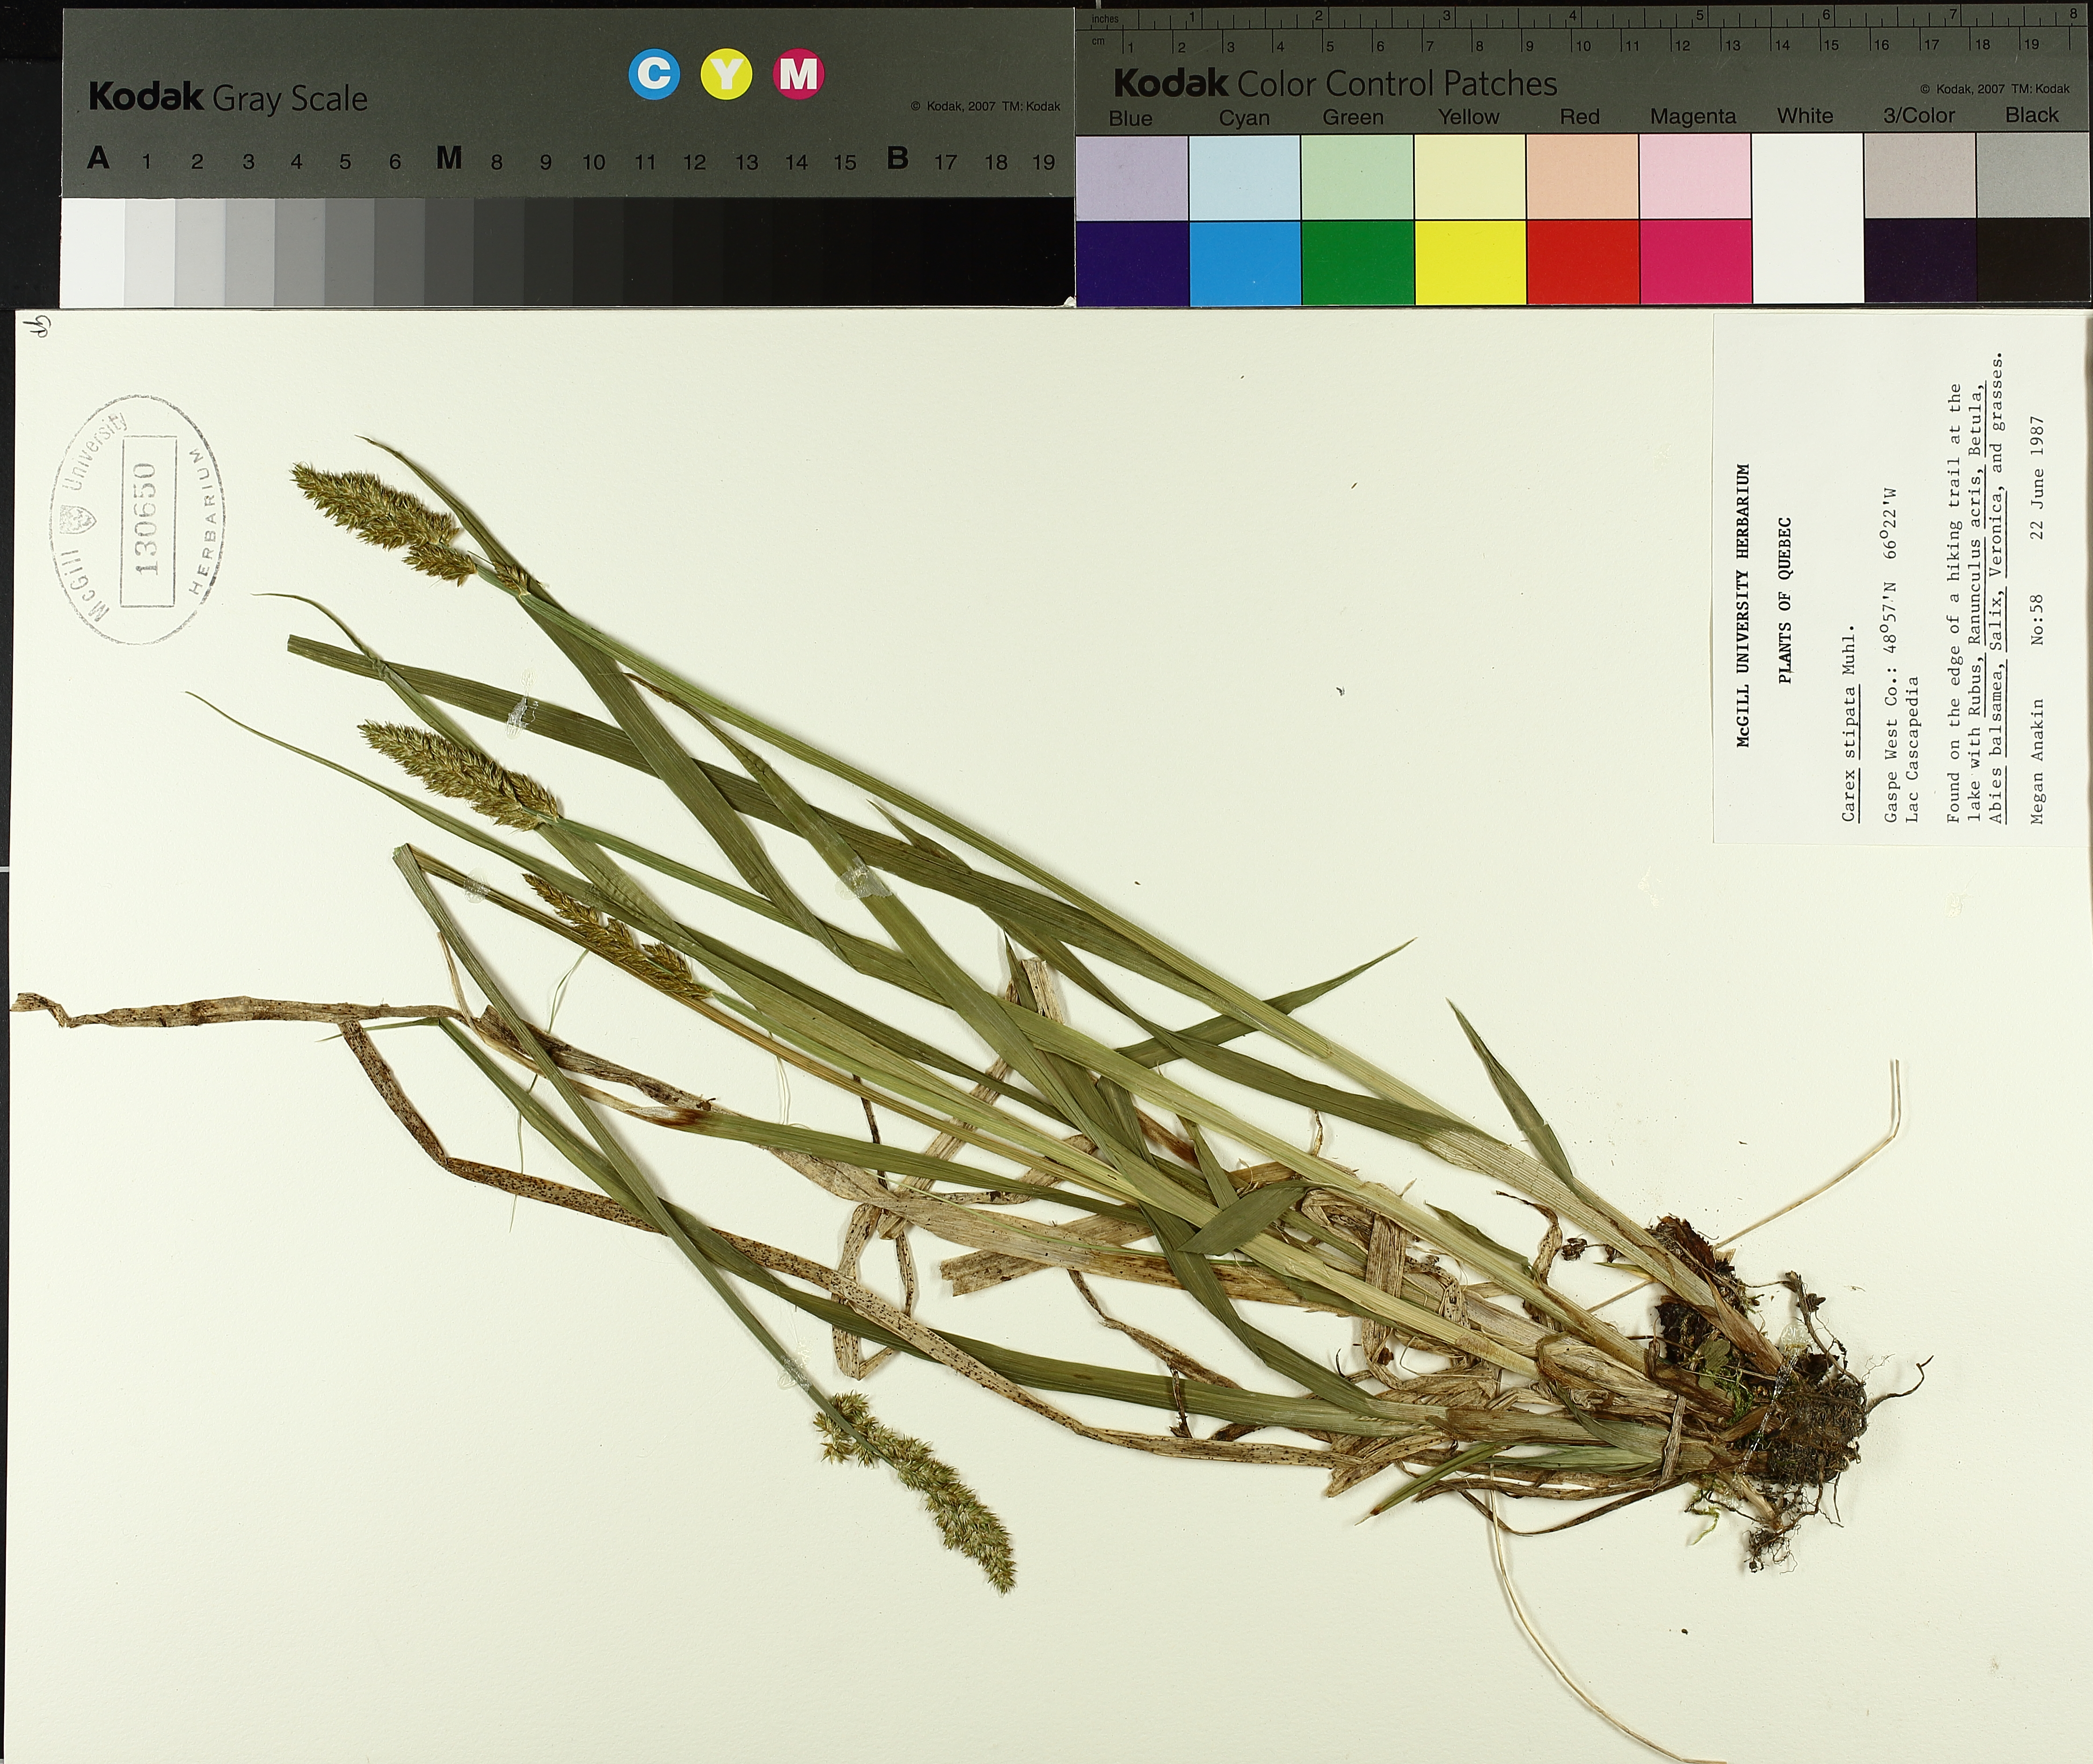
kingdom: Plantae
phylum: Tracheophyta
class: Liliopsida
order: Poales
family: Cyperaceae
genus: Carex
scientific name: Carex stipata
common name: Awl-fruited sedge
